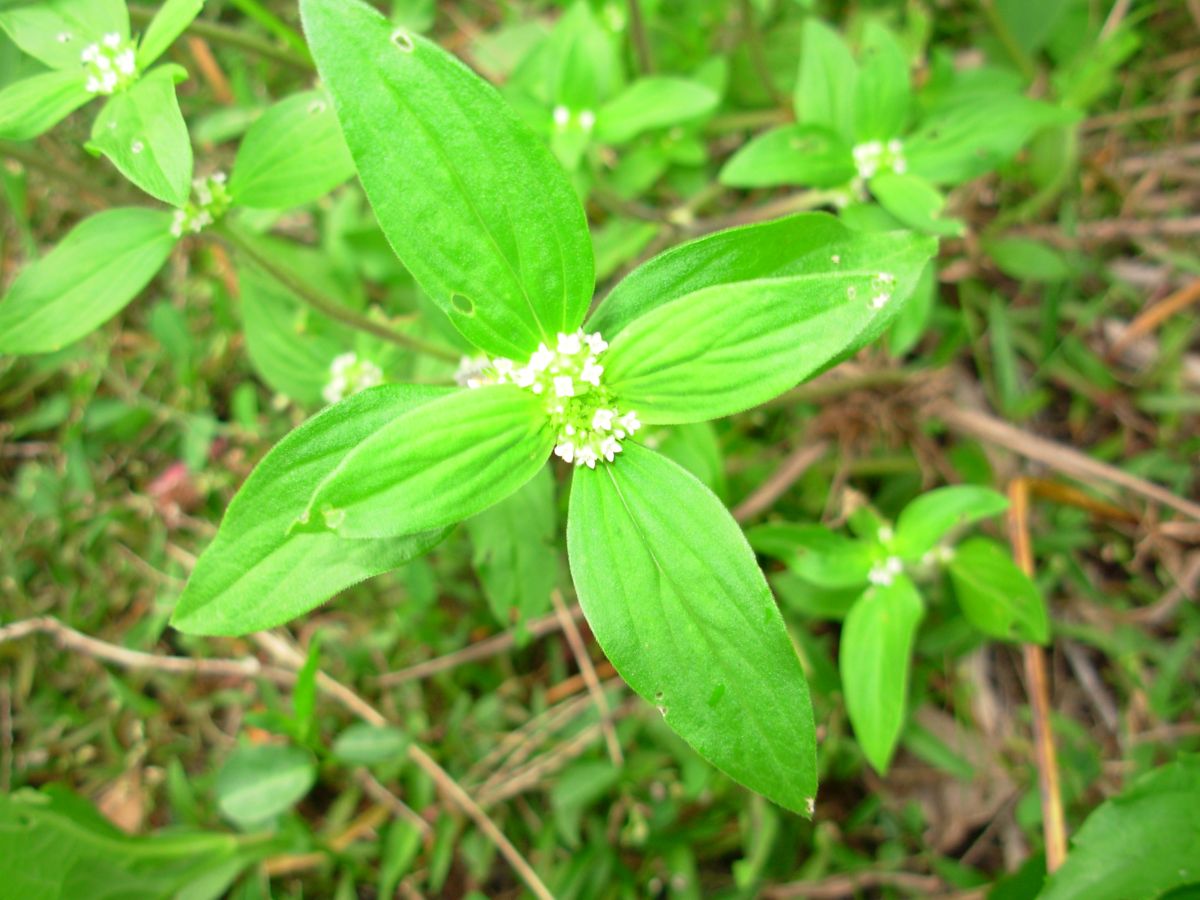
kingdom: Plantae
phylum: Tracheophyta
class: Magnoliopsida
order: Gentianales
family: Rubiaceae
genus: Spermacoce
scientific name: Spermacoce remota
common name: Woodland false buttonweed
